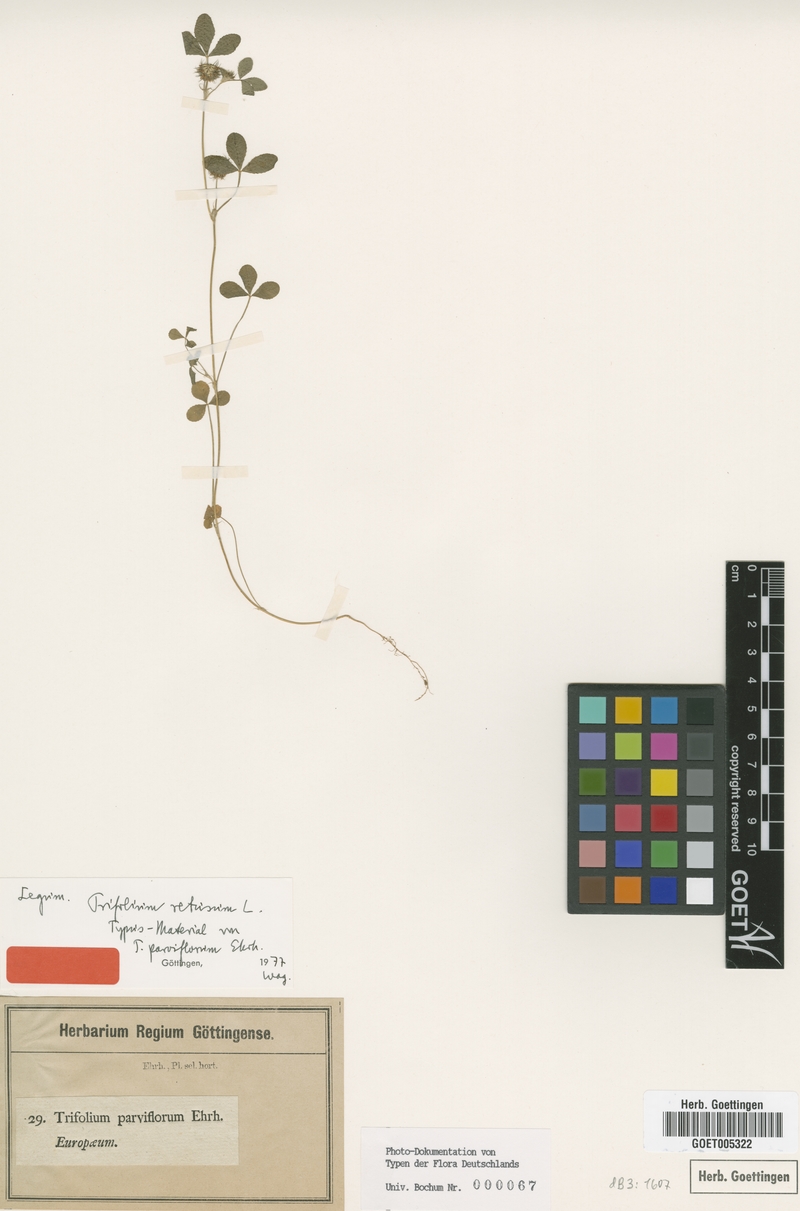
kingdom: Plantae
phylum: Tracheophyta
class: Magnoliopsida
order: Fabales
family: Fabaceae
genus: Trifolium
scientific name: Trifolium retusum
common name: Teasel clover
